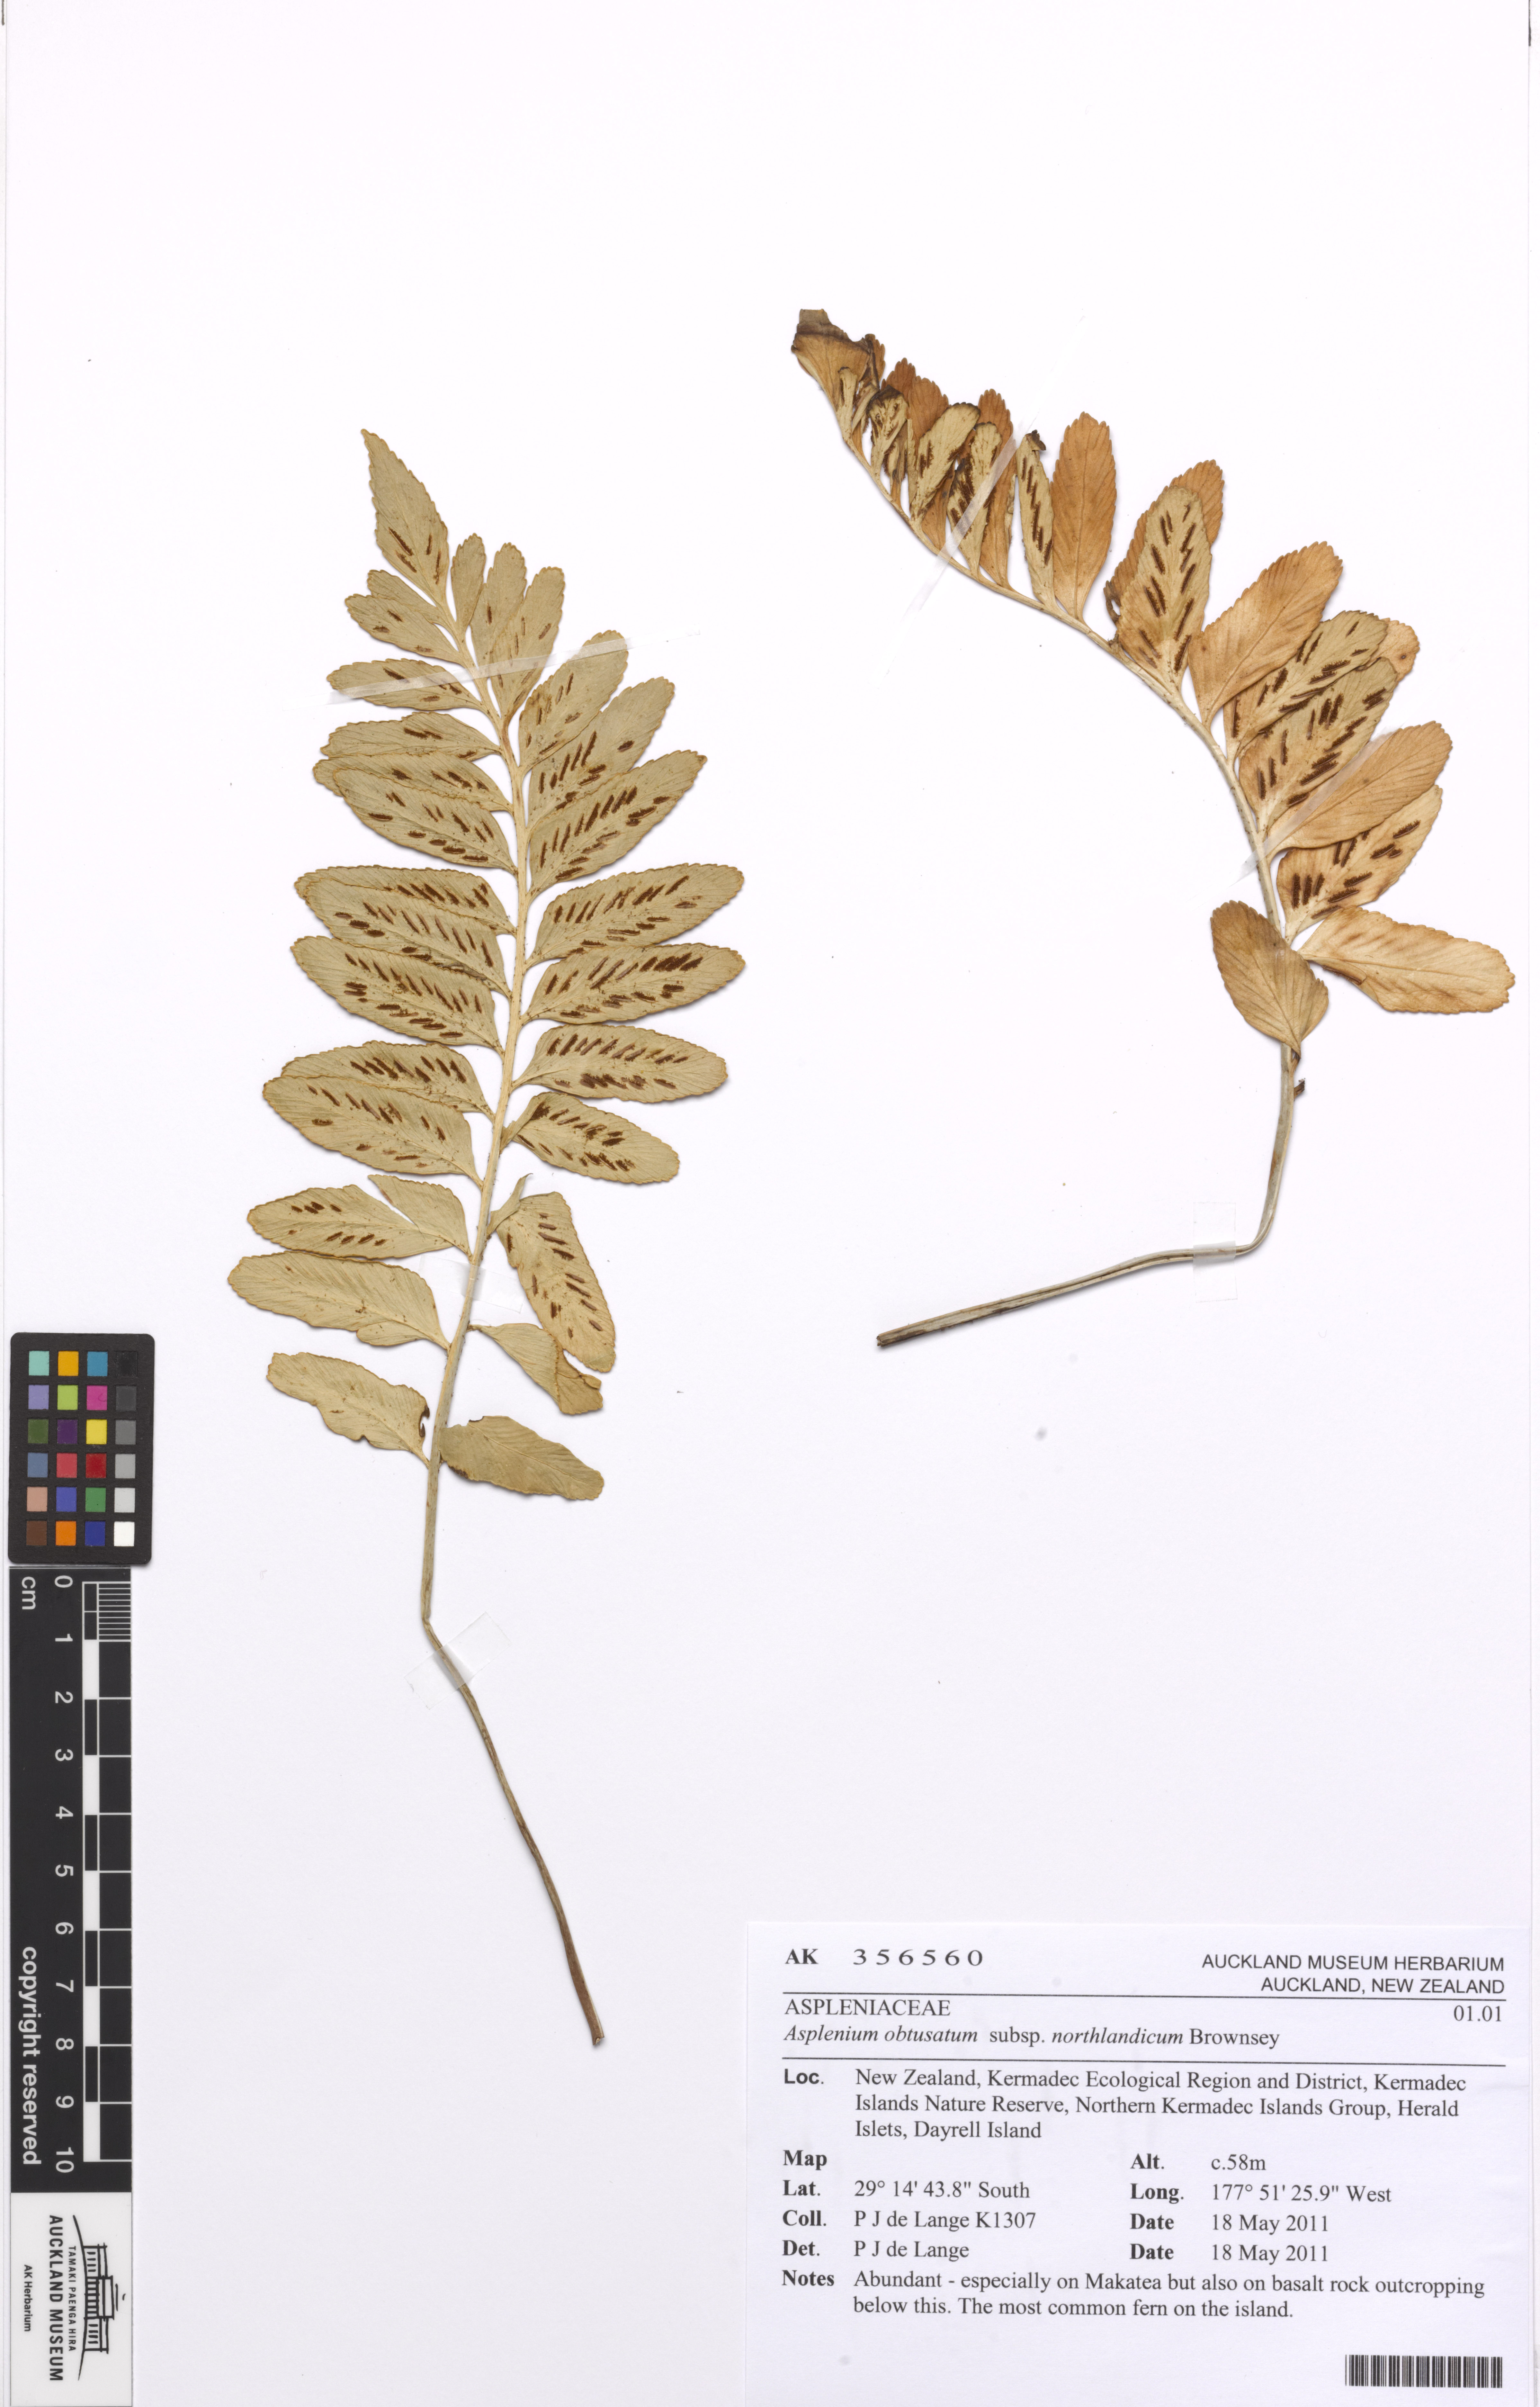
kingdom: Plantae
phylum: Tracheophyta
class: Polypodiopsida
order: Polypodiales
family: Aspleniaceae
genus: Asplenium
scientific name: Asplenium obtusatum
